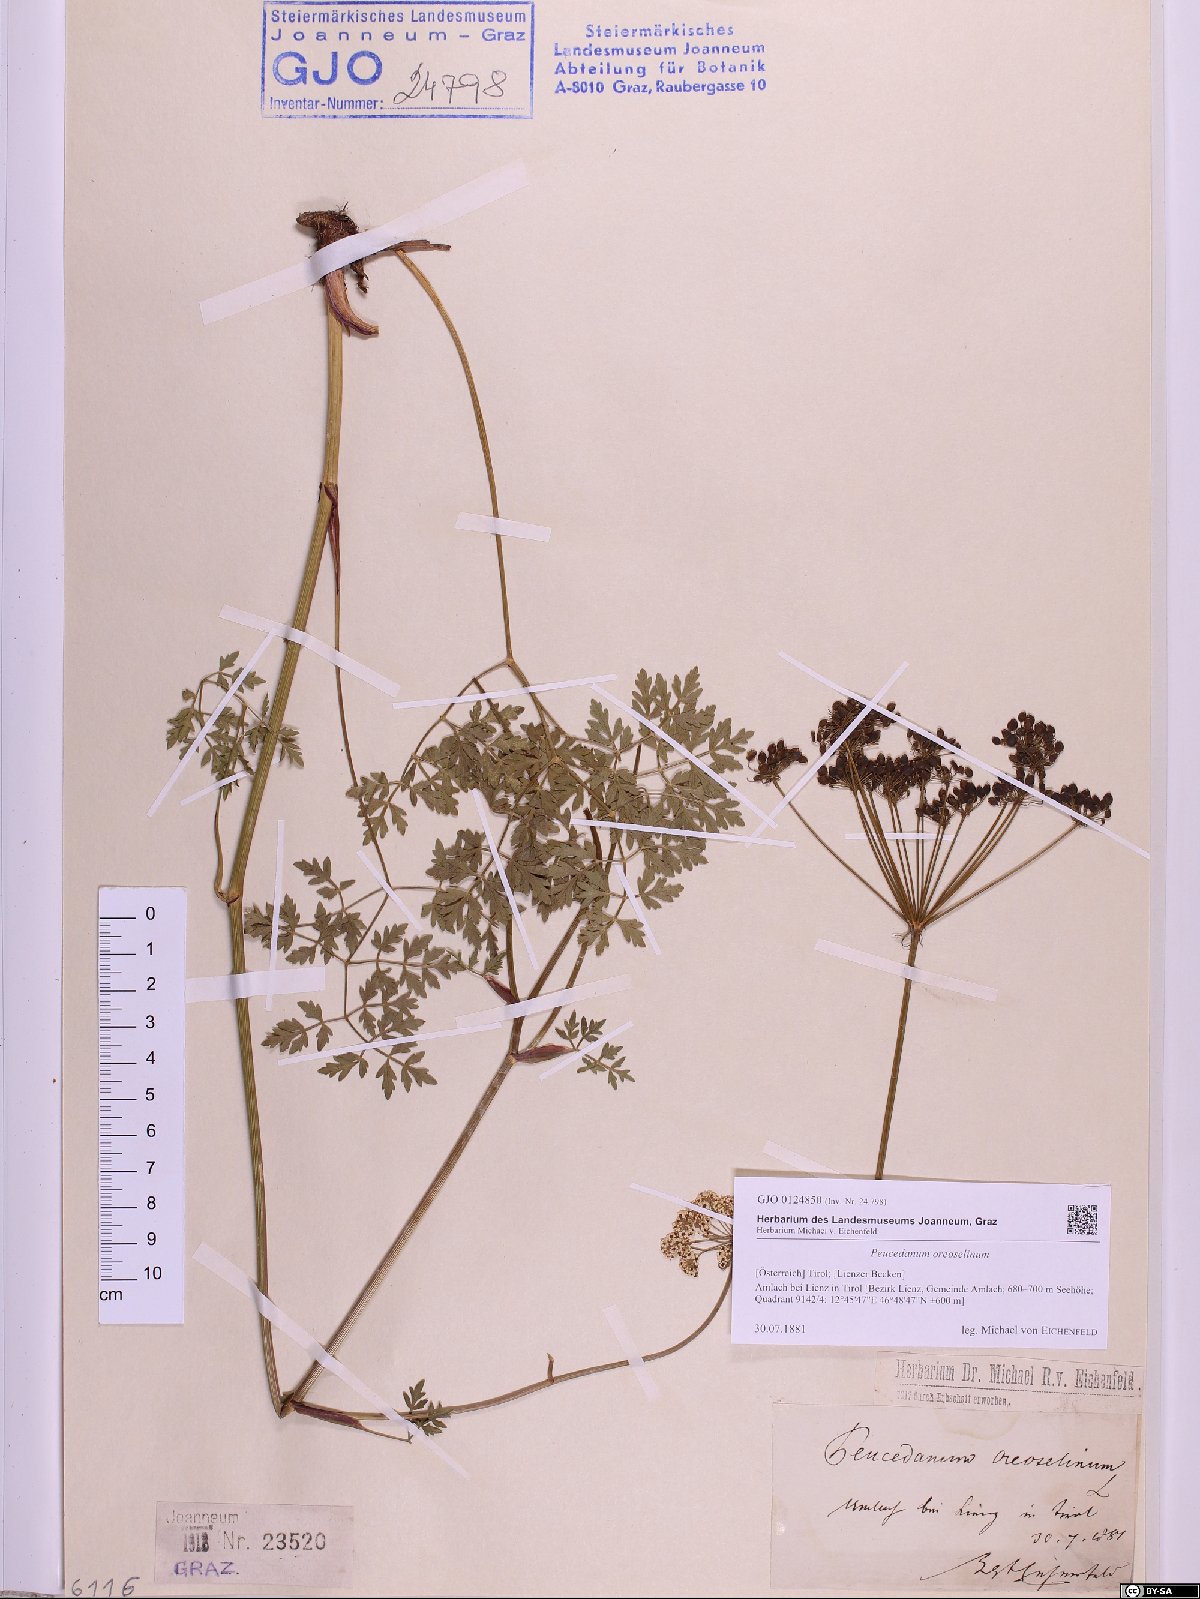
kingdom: Plantae
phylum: Tracheophyta
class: Magnoliopsida
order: Apiales
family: Apiaceae
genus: Oreoselinum
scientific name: Oreoselinum nigrum
